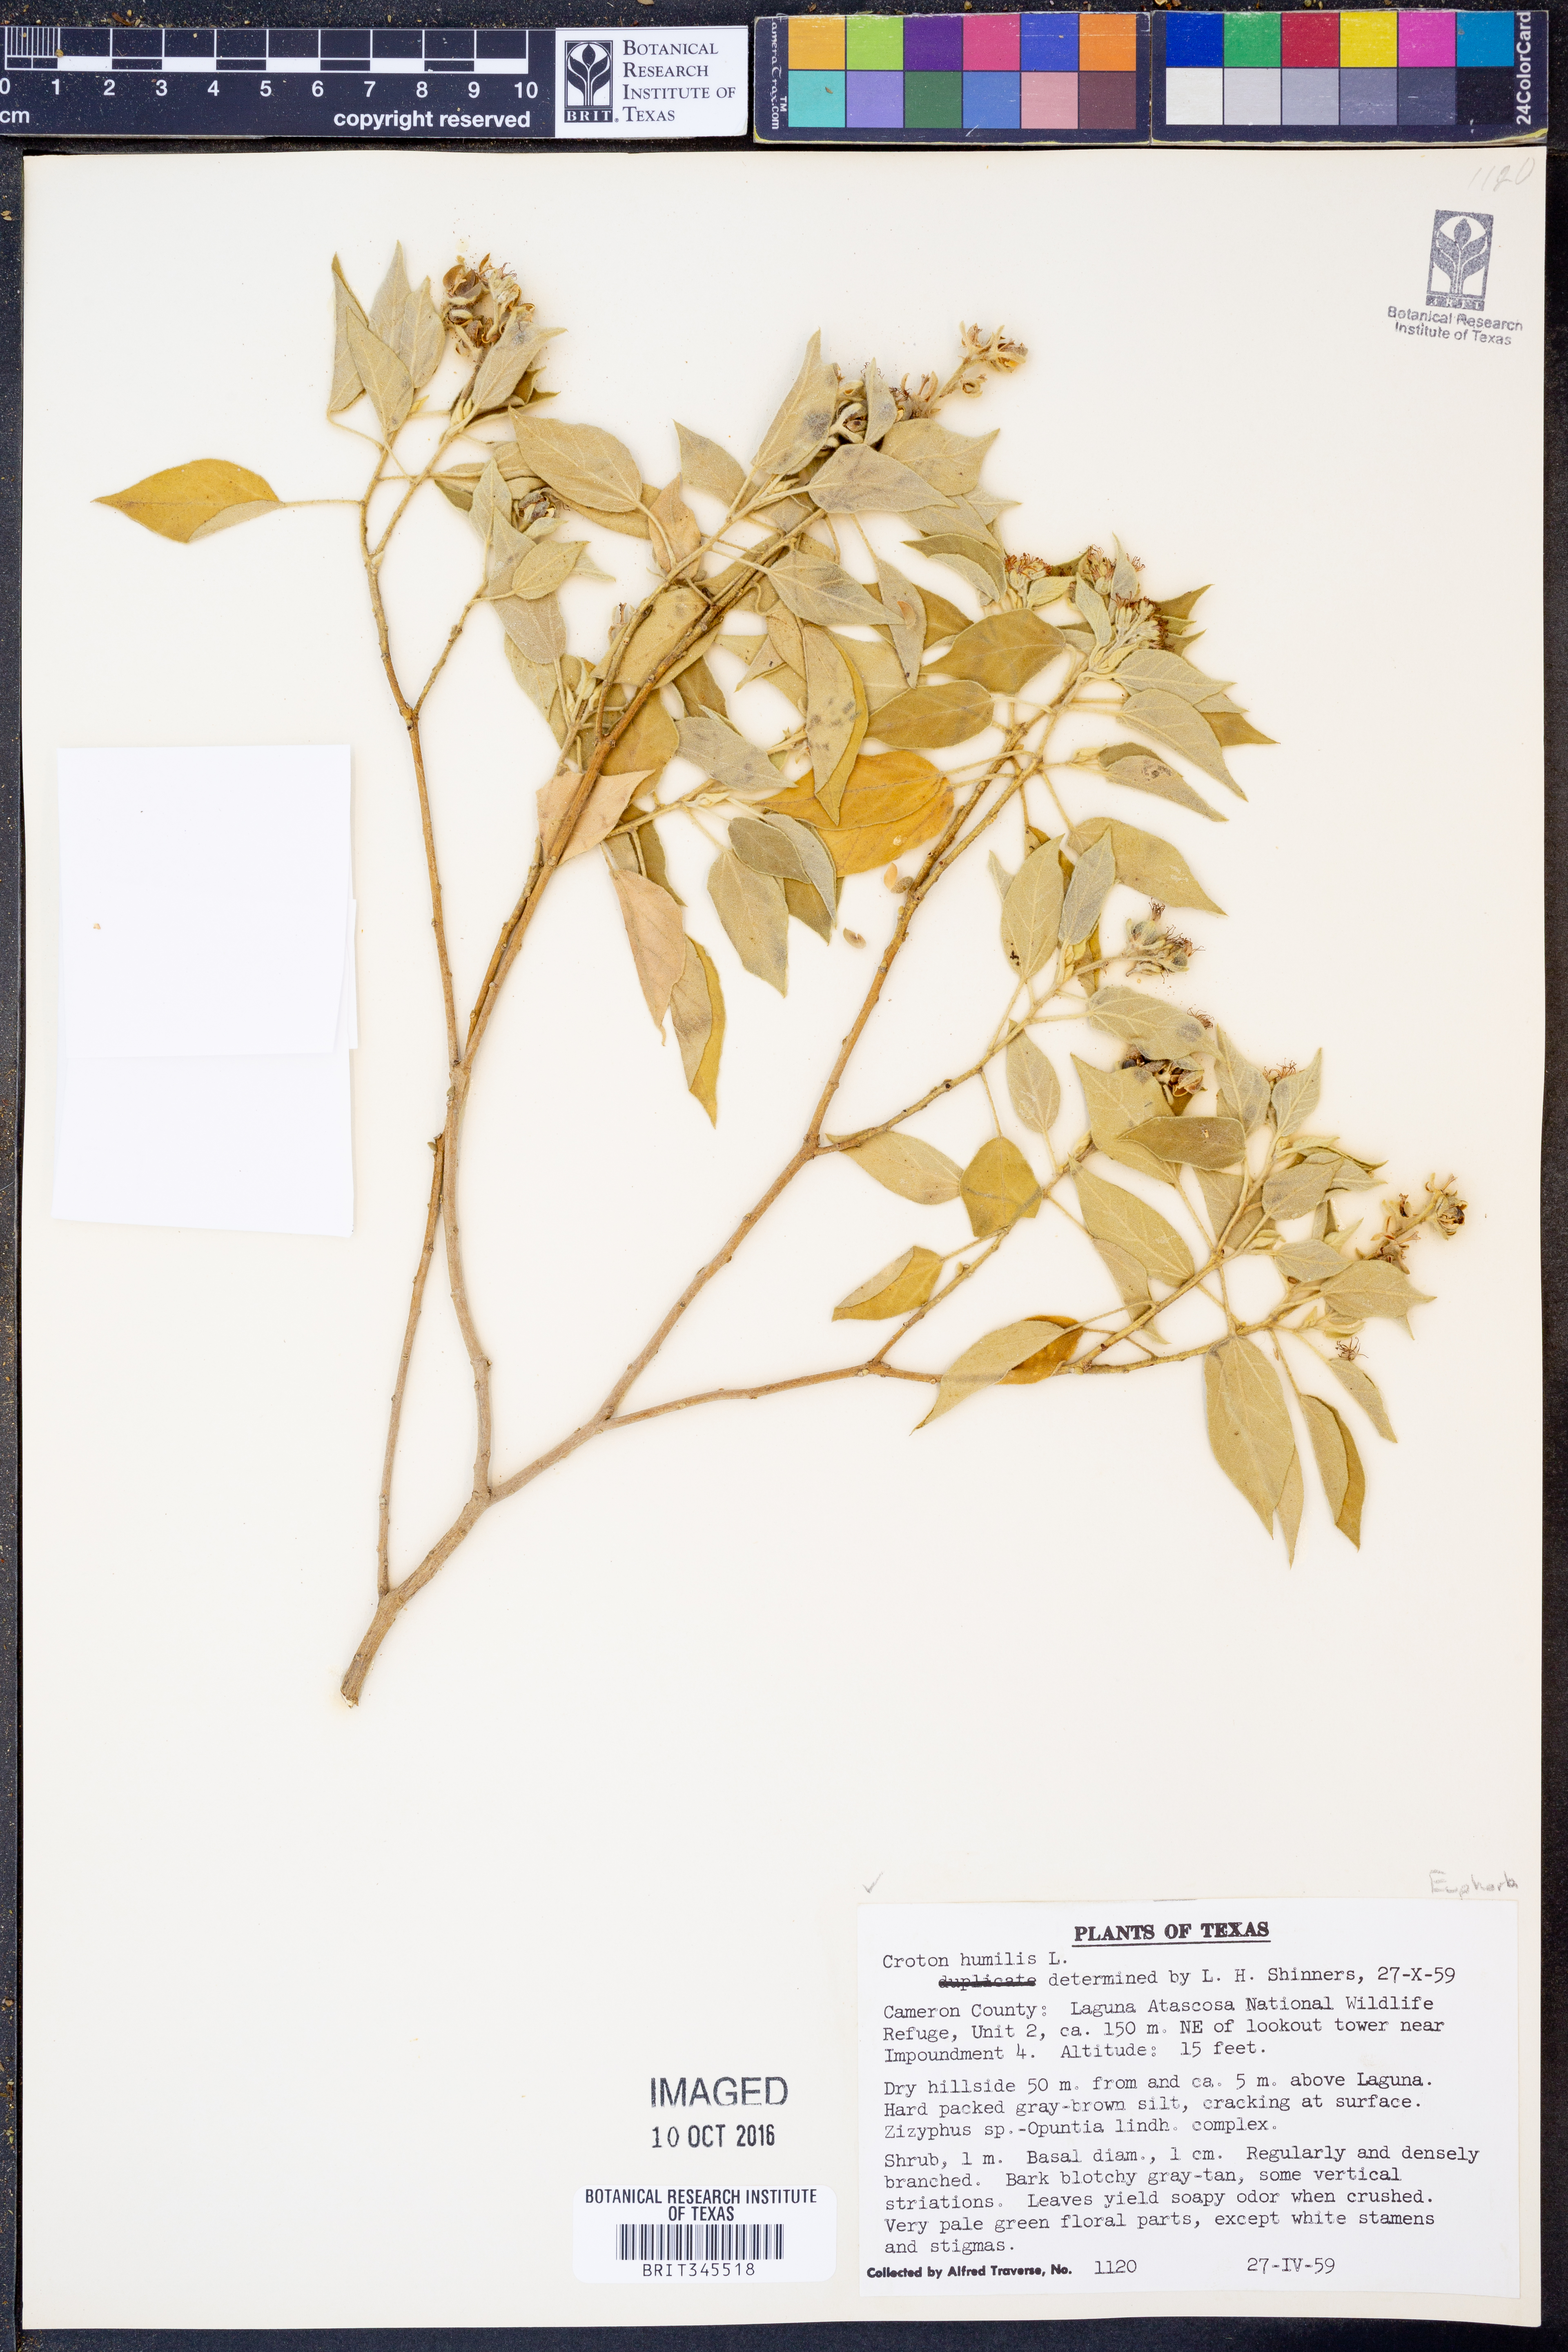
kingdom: Plantae
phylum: Tracheophyta
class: Magnoliopsida
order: Malpighiales
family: Euphorbiaceae
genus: Croton
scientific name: Croton humilis
